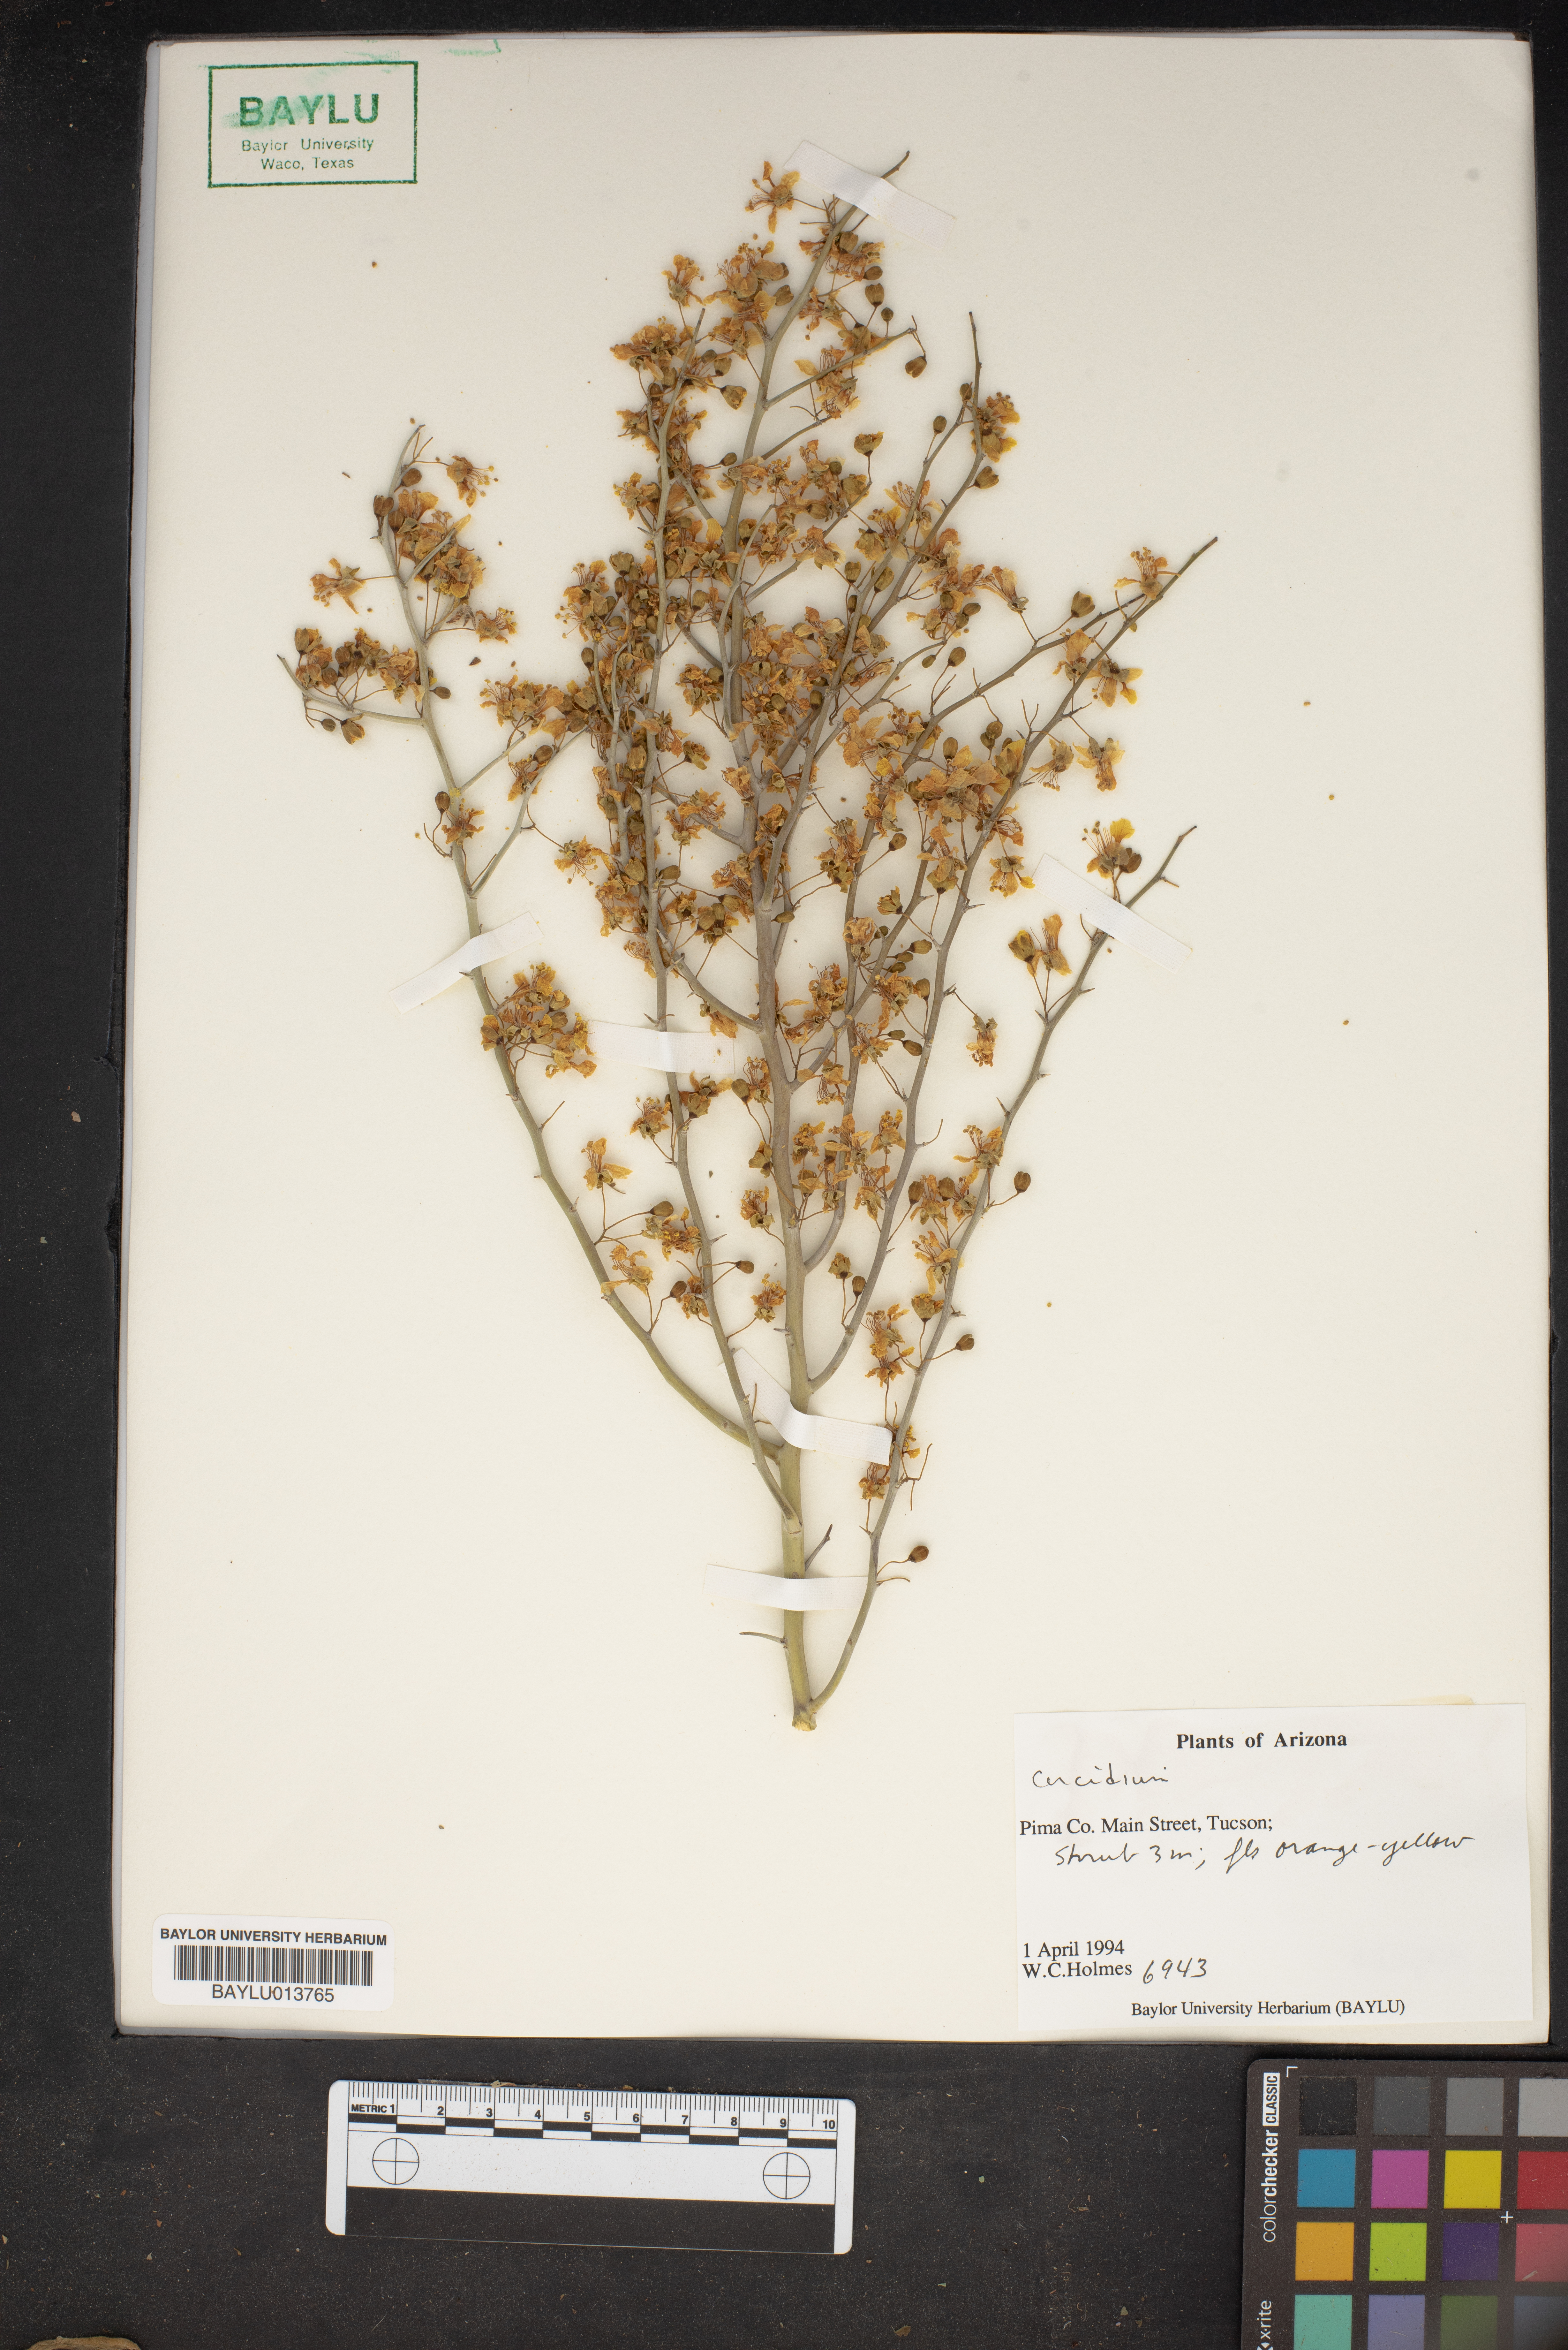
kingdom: Plantae
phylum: Chlorophyta
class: Chlorophyceae
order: Volvocales
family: Chlamydomonadaceae
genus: Cercidium
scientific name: Cercidium
